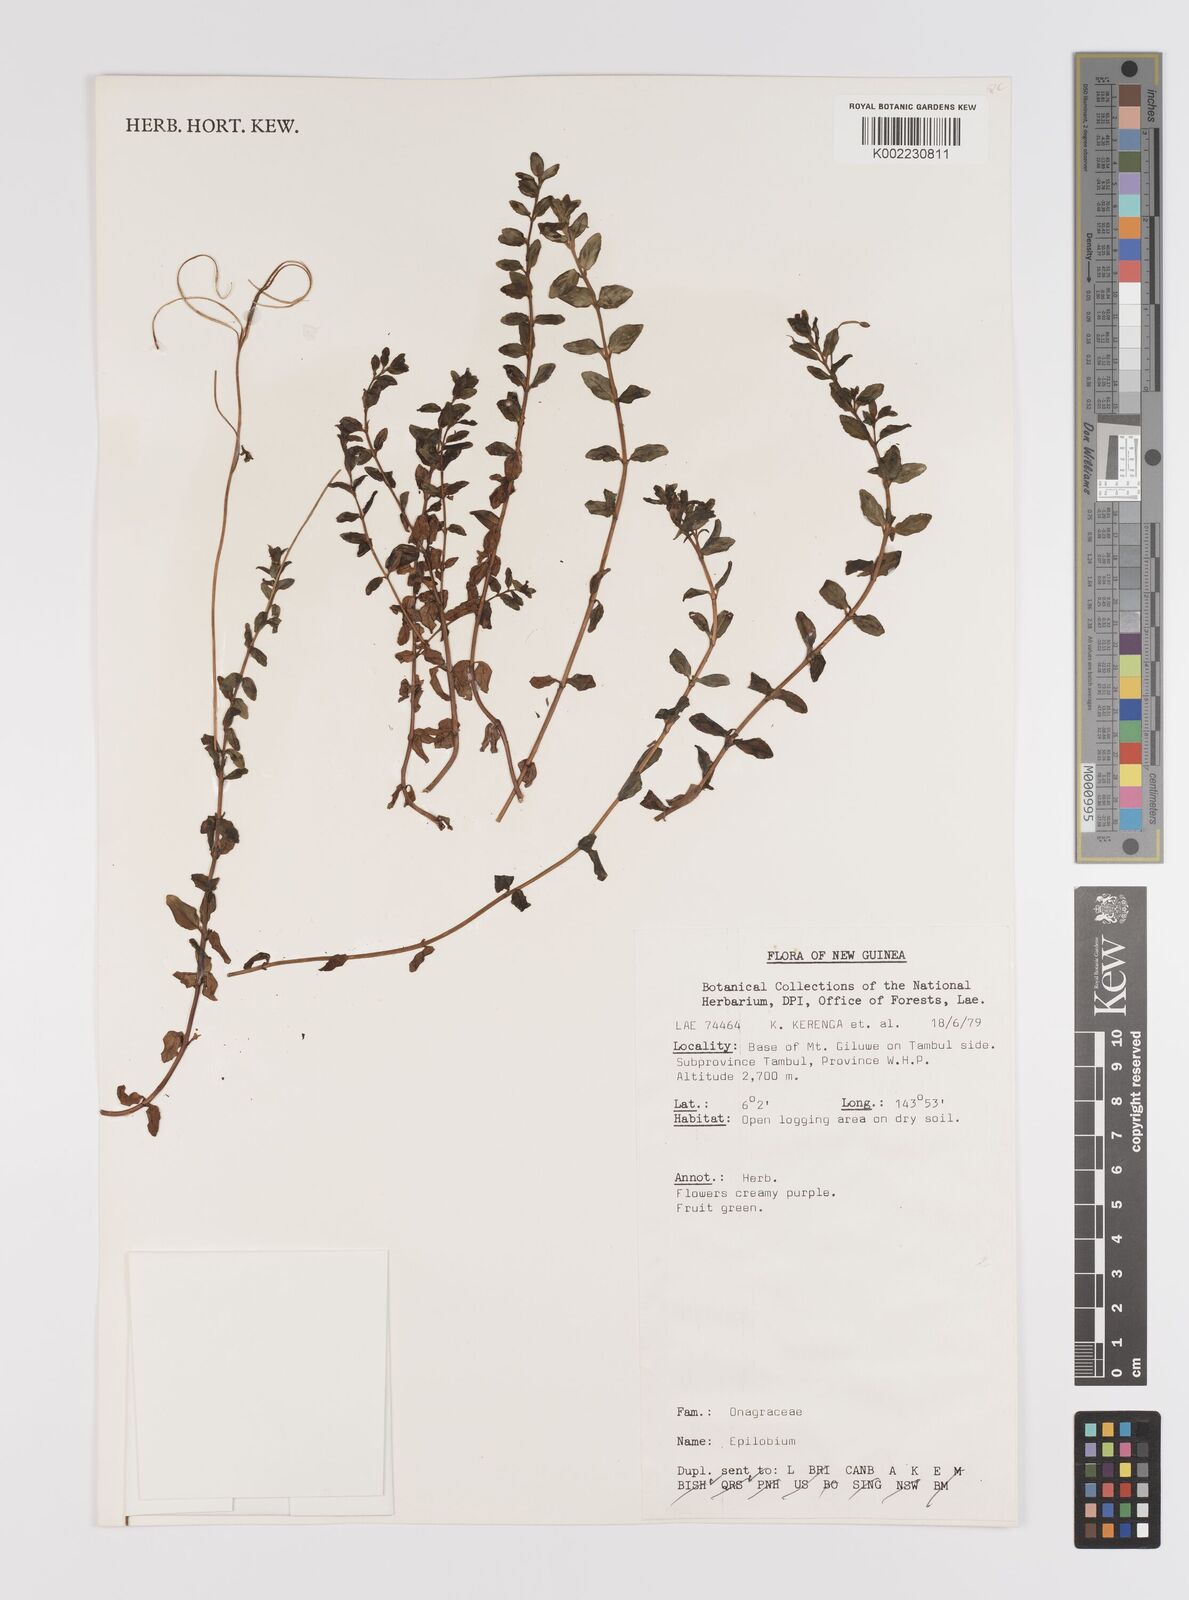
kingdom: Plantae
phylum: Tracheophyta
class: Magnoliopsida
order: Myrtales
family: Onagraceae
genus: Epilobium
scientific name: Epilobium
